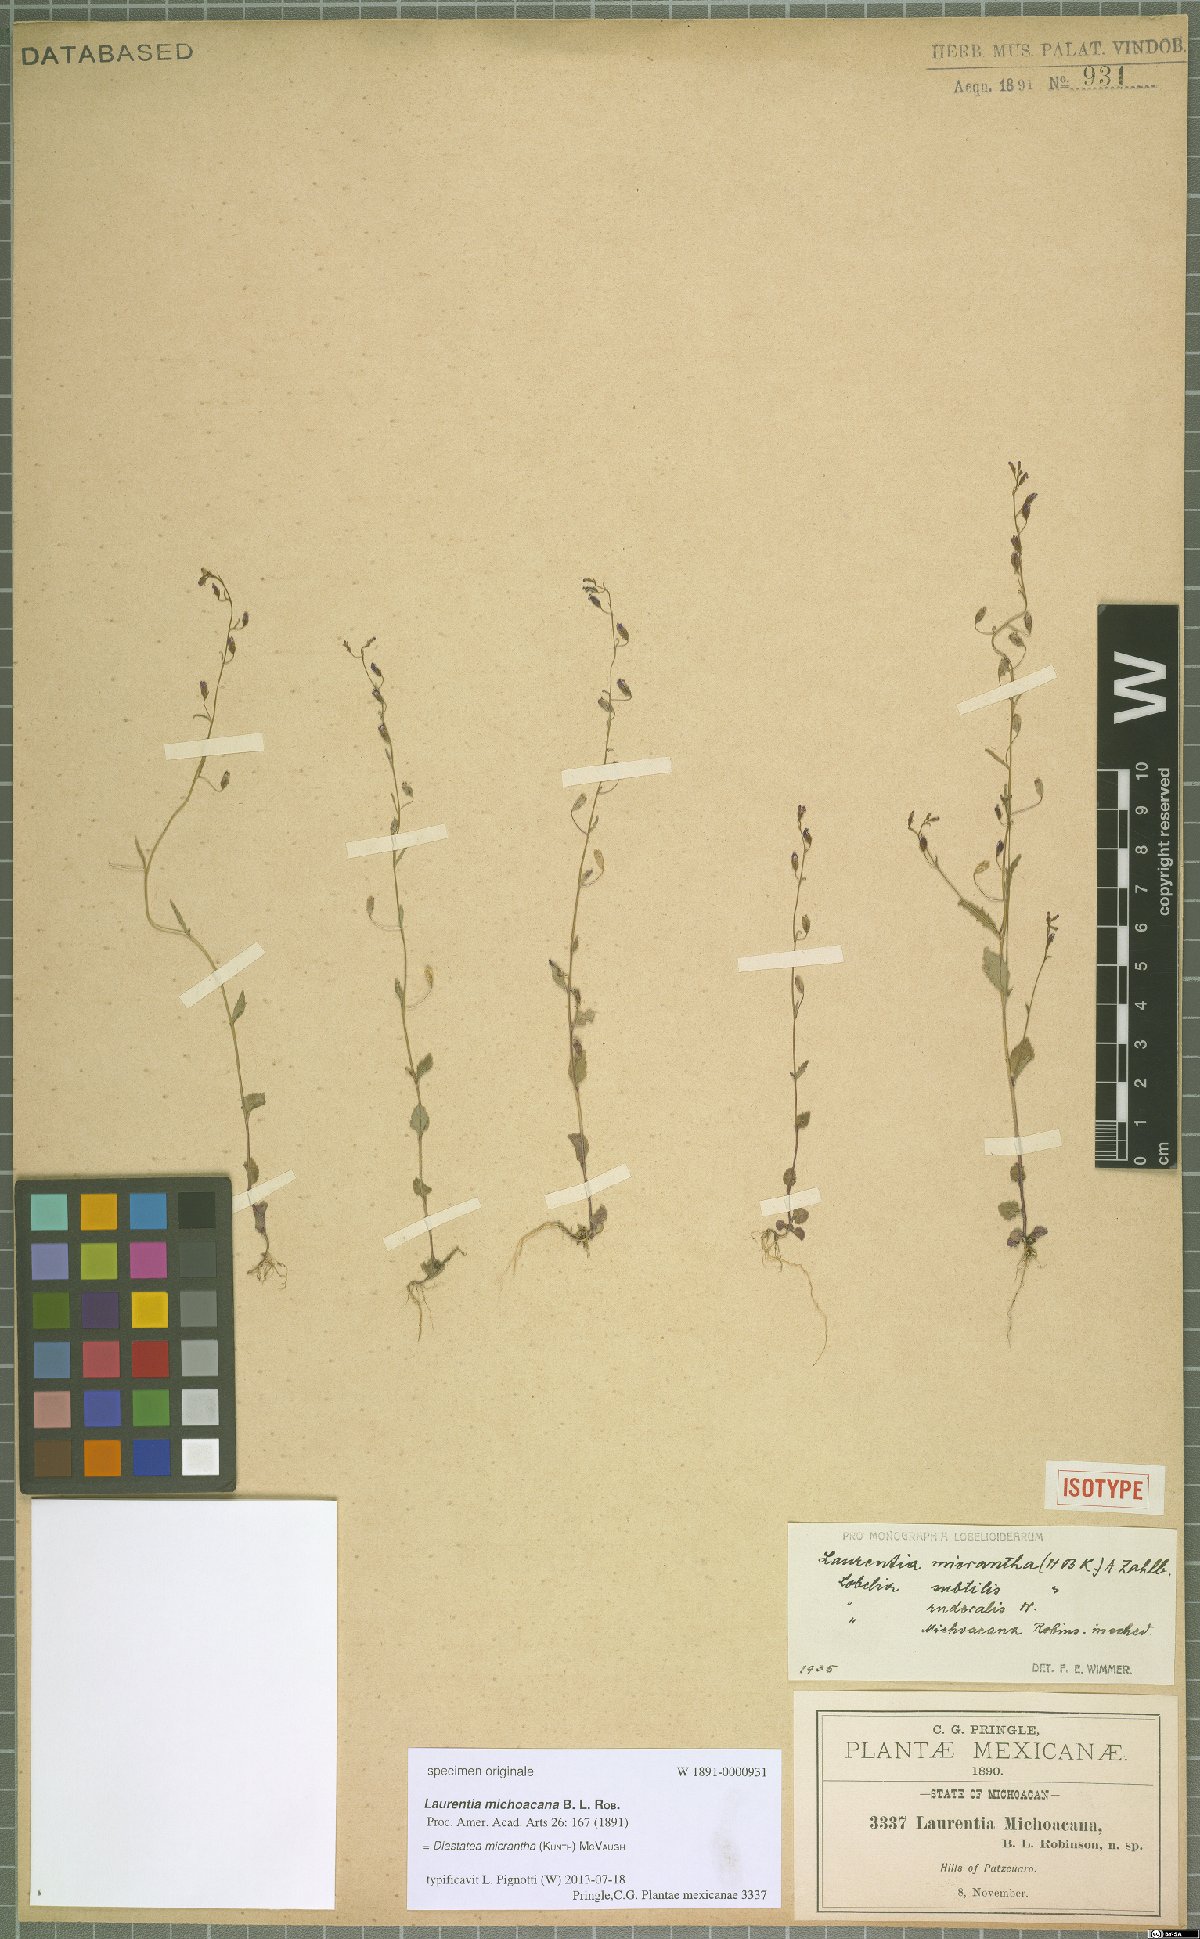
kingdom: Plantae
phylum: Tracheophyta
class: Magnoliopsida
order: Asterales
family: Campanulaceae
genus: Diastatea
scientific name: Diastatea micrantha
